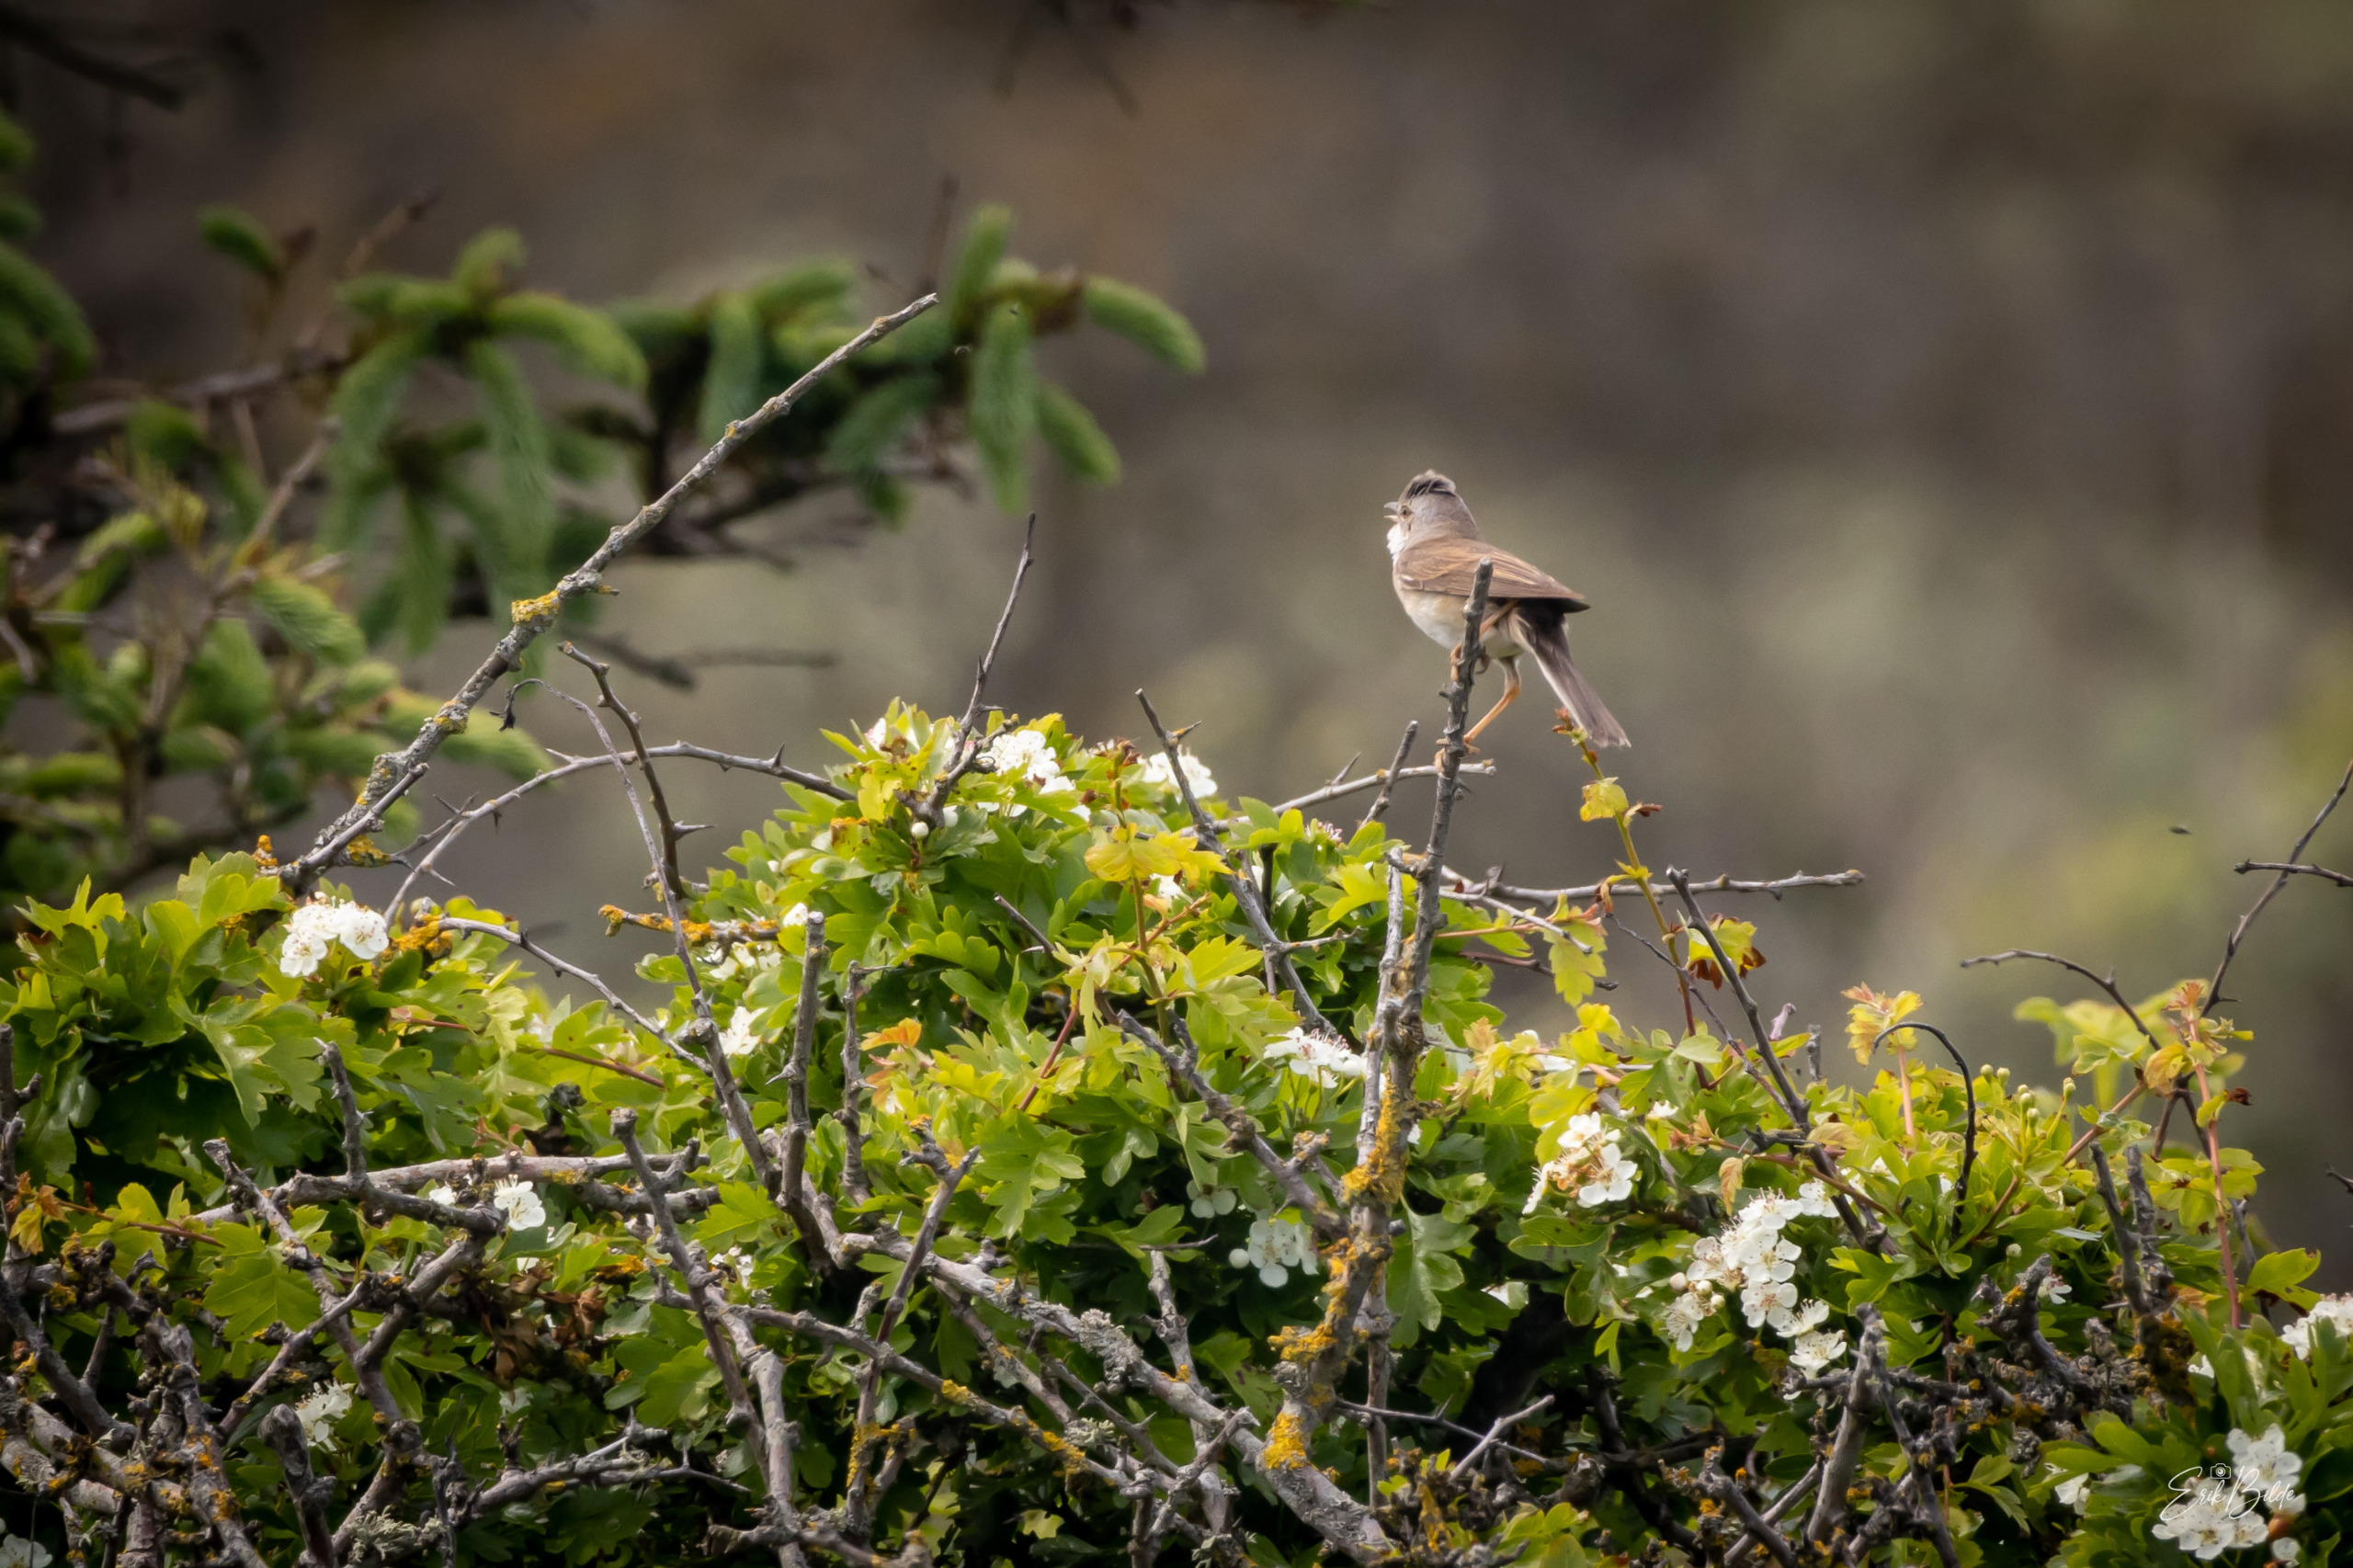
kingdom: Animalia
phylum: Chordata
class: Aves
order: Passeriformes
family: Sylviidae
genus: Sylvia
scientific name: Sylvia communis
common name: Tornsanger
